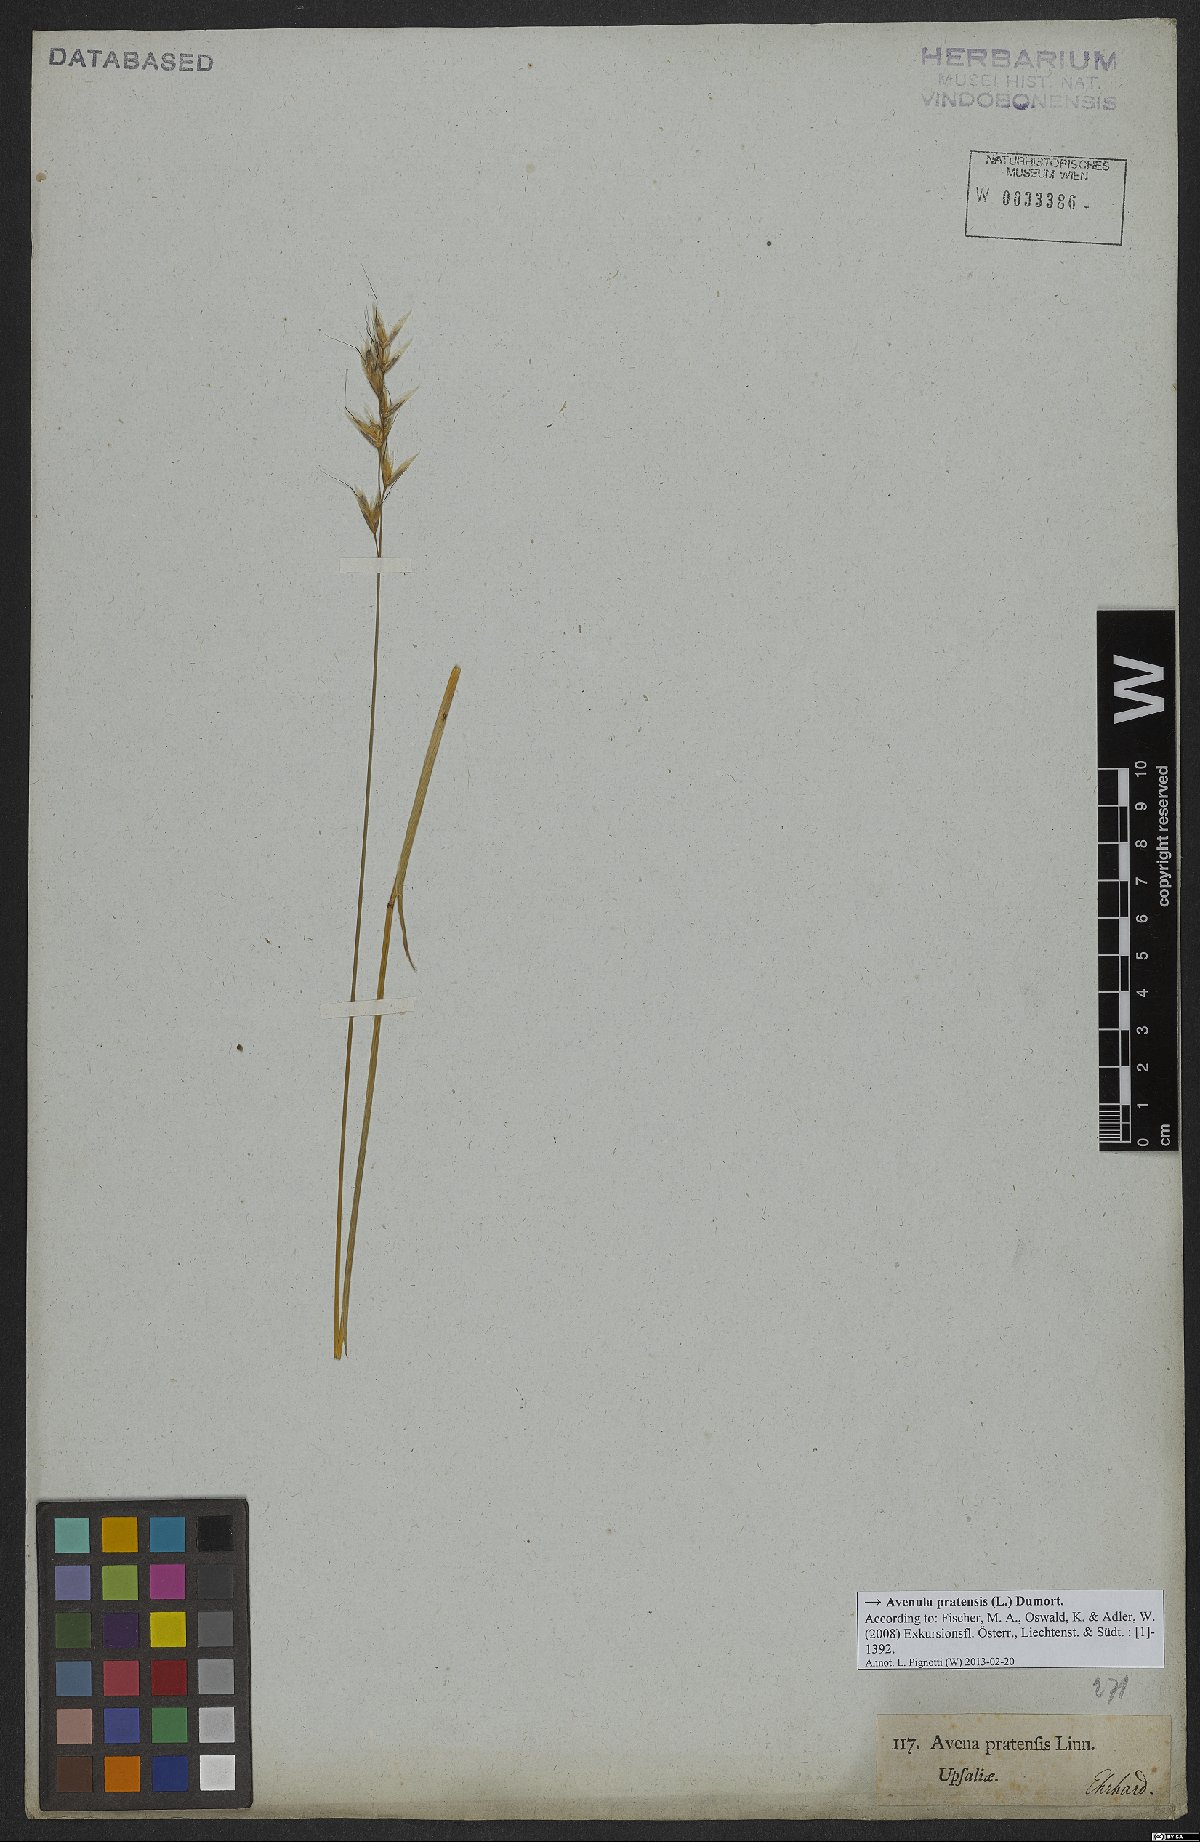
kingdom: Plantae
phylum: Tracheophyta
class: Liliopsida
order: Poales
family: Poaceae
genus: Helictochloa
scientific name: Helictochloa pratensis
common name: Meadow oat grass
